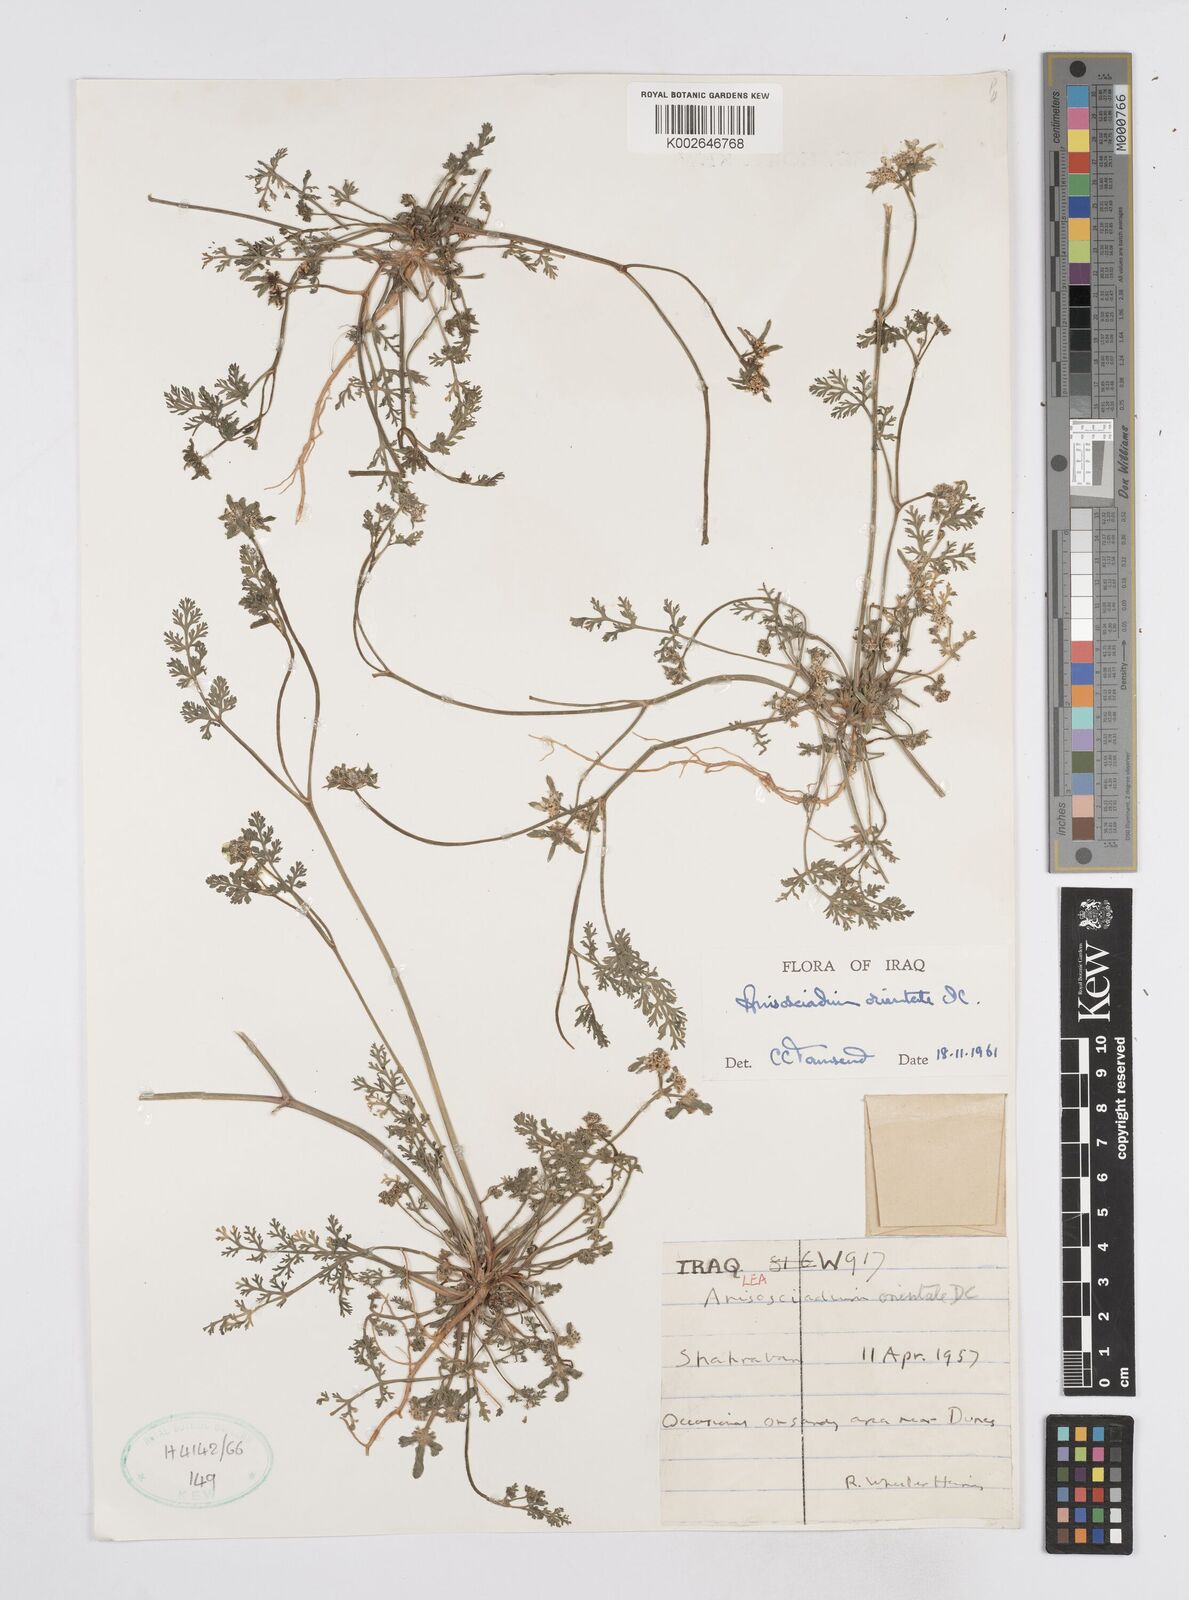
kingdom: Plantae
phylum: Tracheophyta
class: Magnoliopsida
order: Apiales
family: Apiaceae
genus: Anisosciadium
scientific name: Anisosciadium orientale
